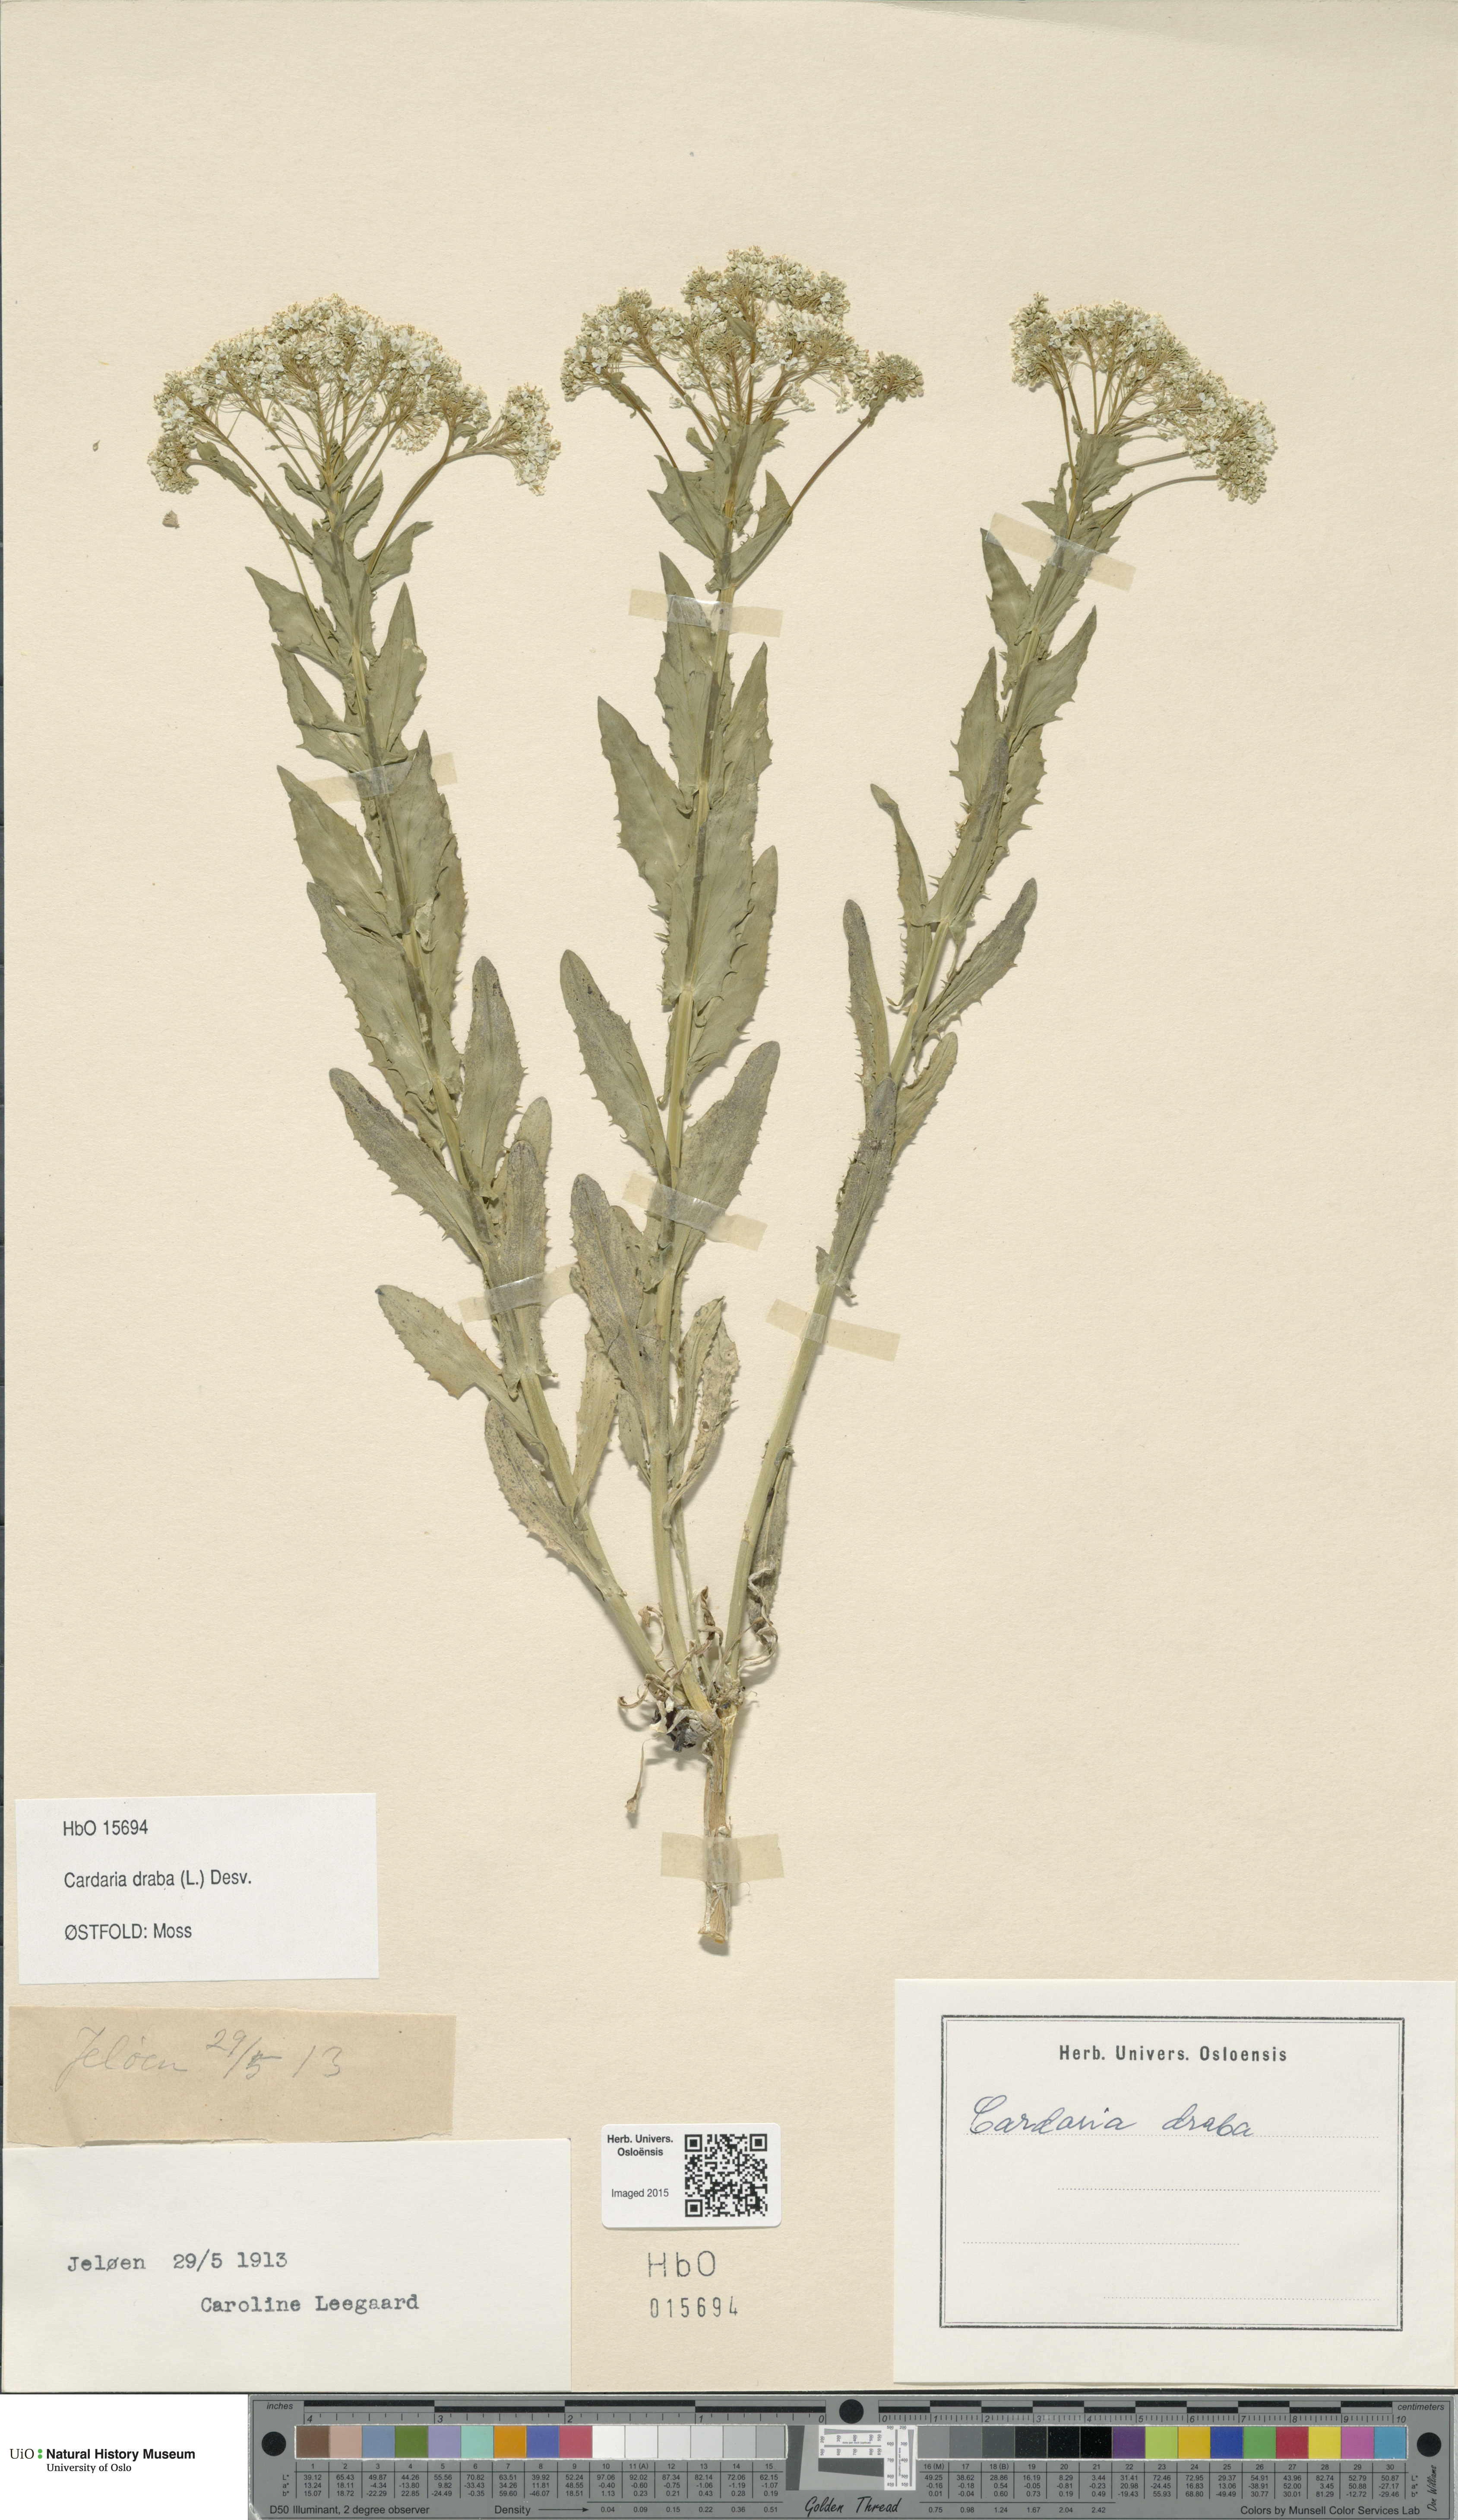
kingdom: Plantae
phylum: Tracheophyta
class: Magnoliopsida
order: Brassicales
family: Brassicaceae
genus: Lepidium
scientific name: Lepidium draba
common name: Hoary cress
